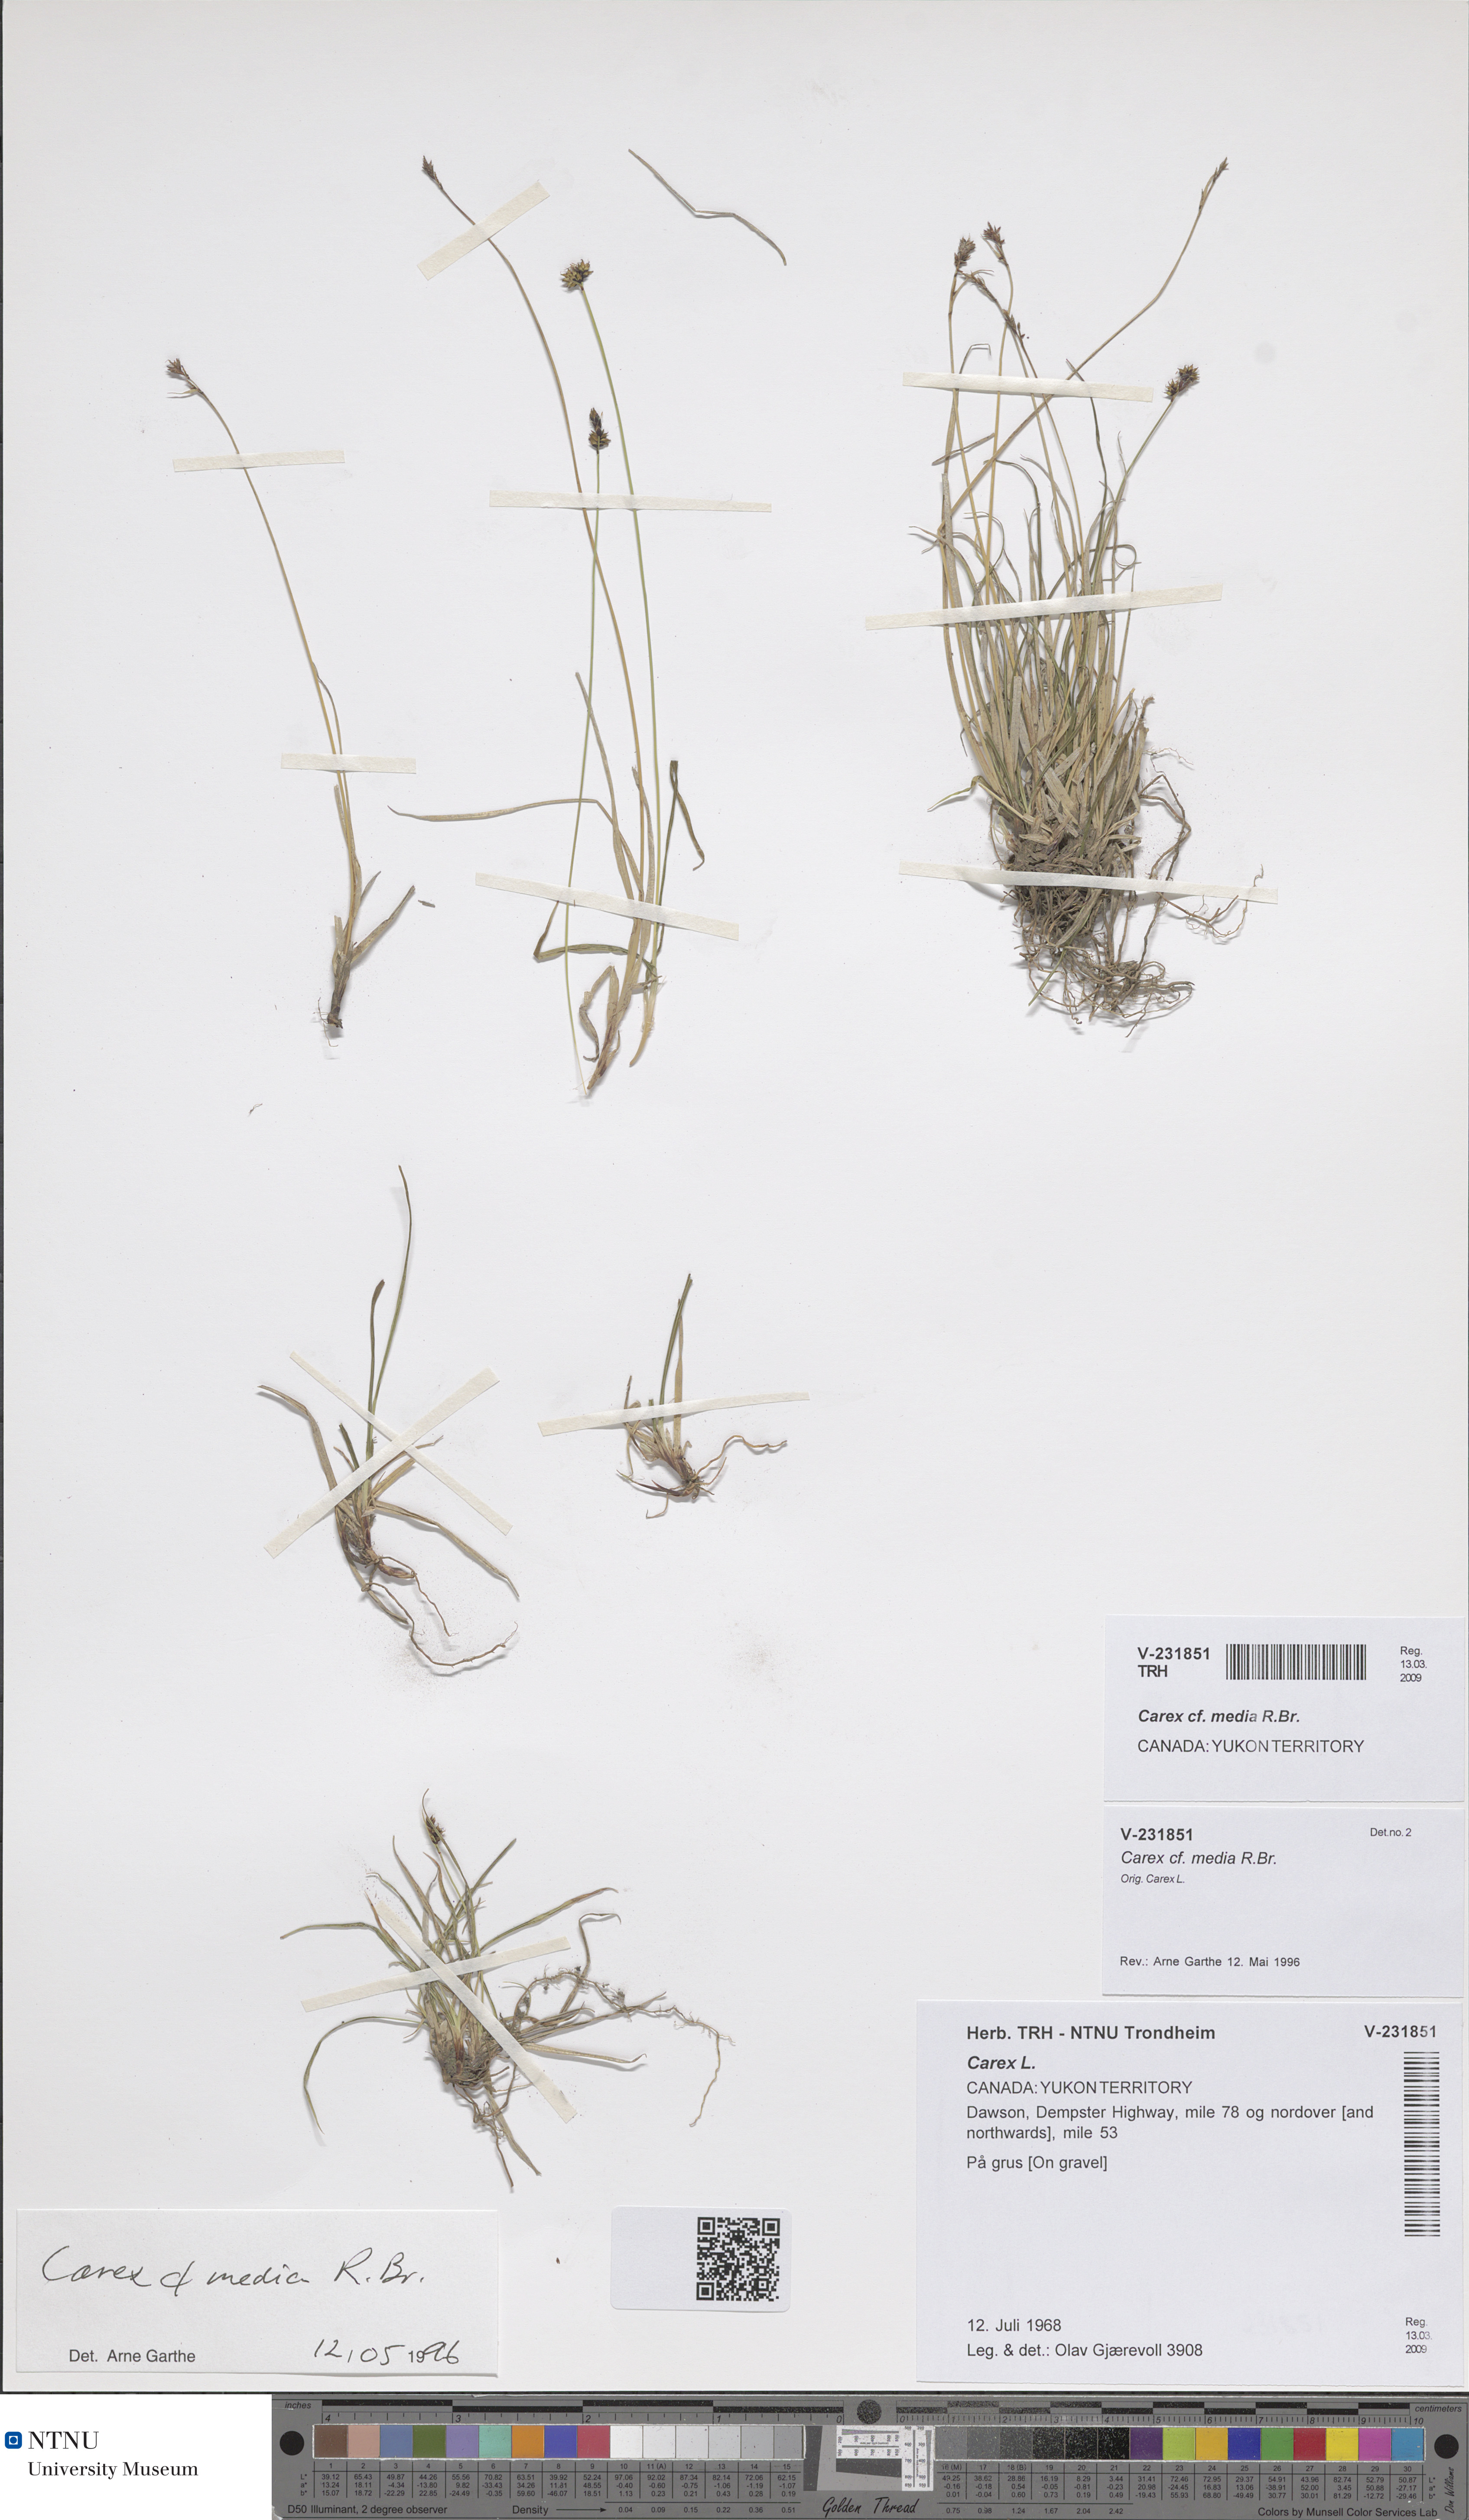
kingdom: Plantae
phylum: Tracheophyta
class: Liliopsida
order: Poales
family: Cyperaceae
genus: Carex
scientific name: Carex media
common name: Alpine sedge
